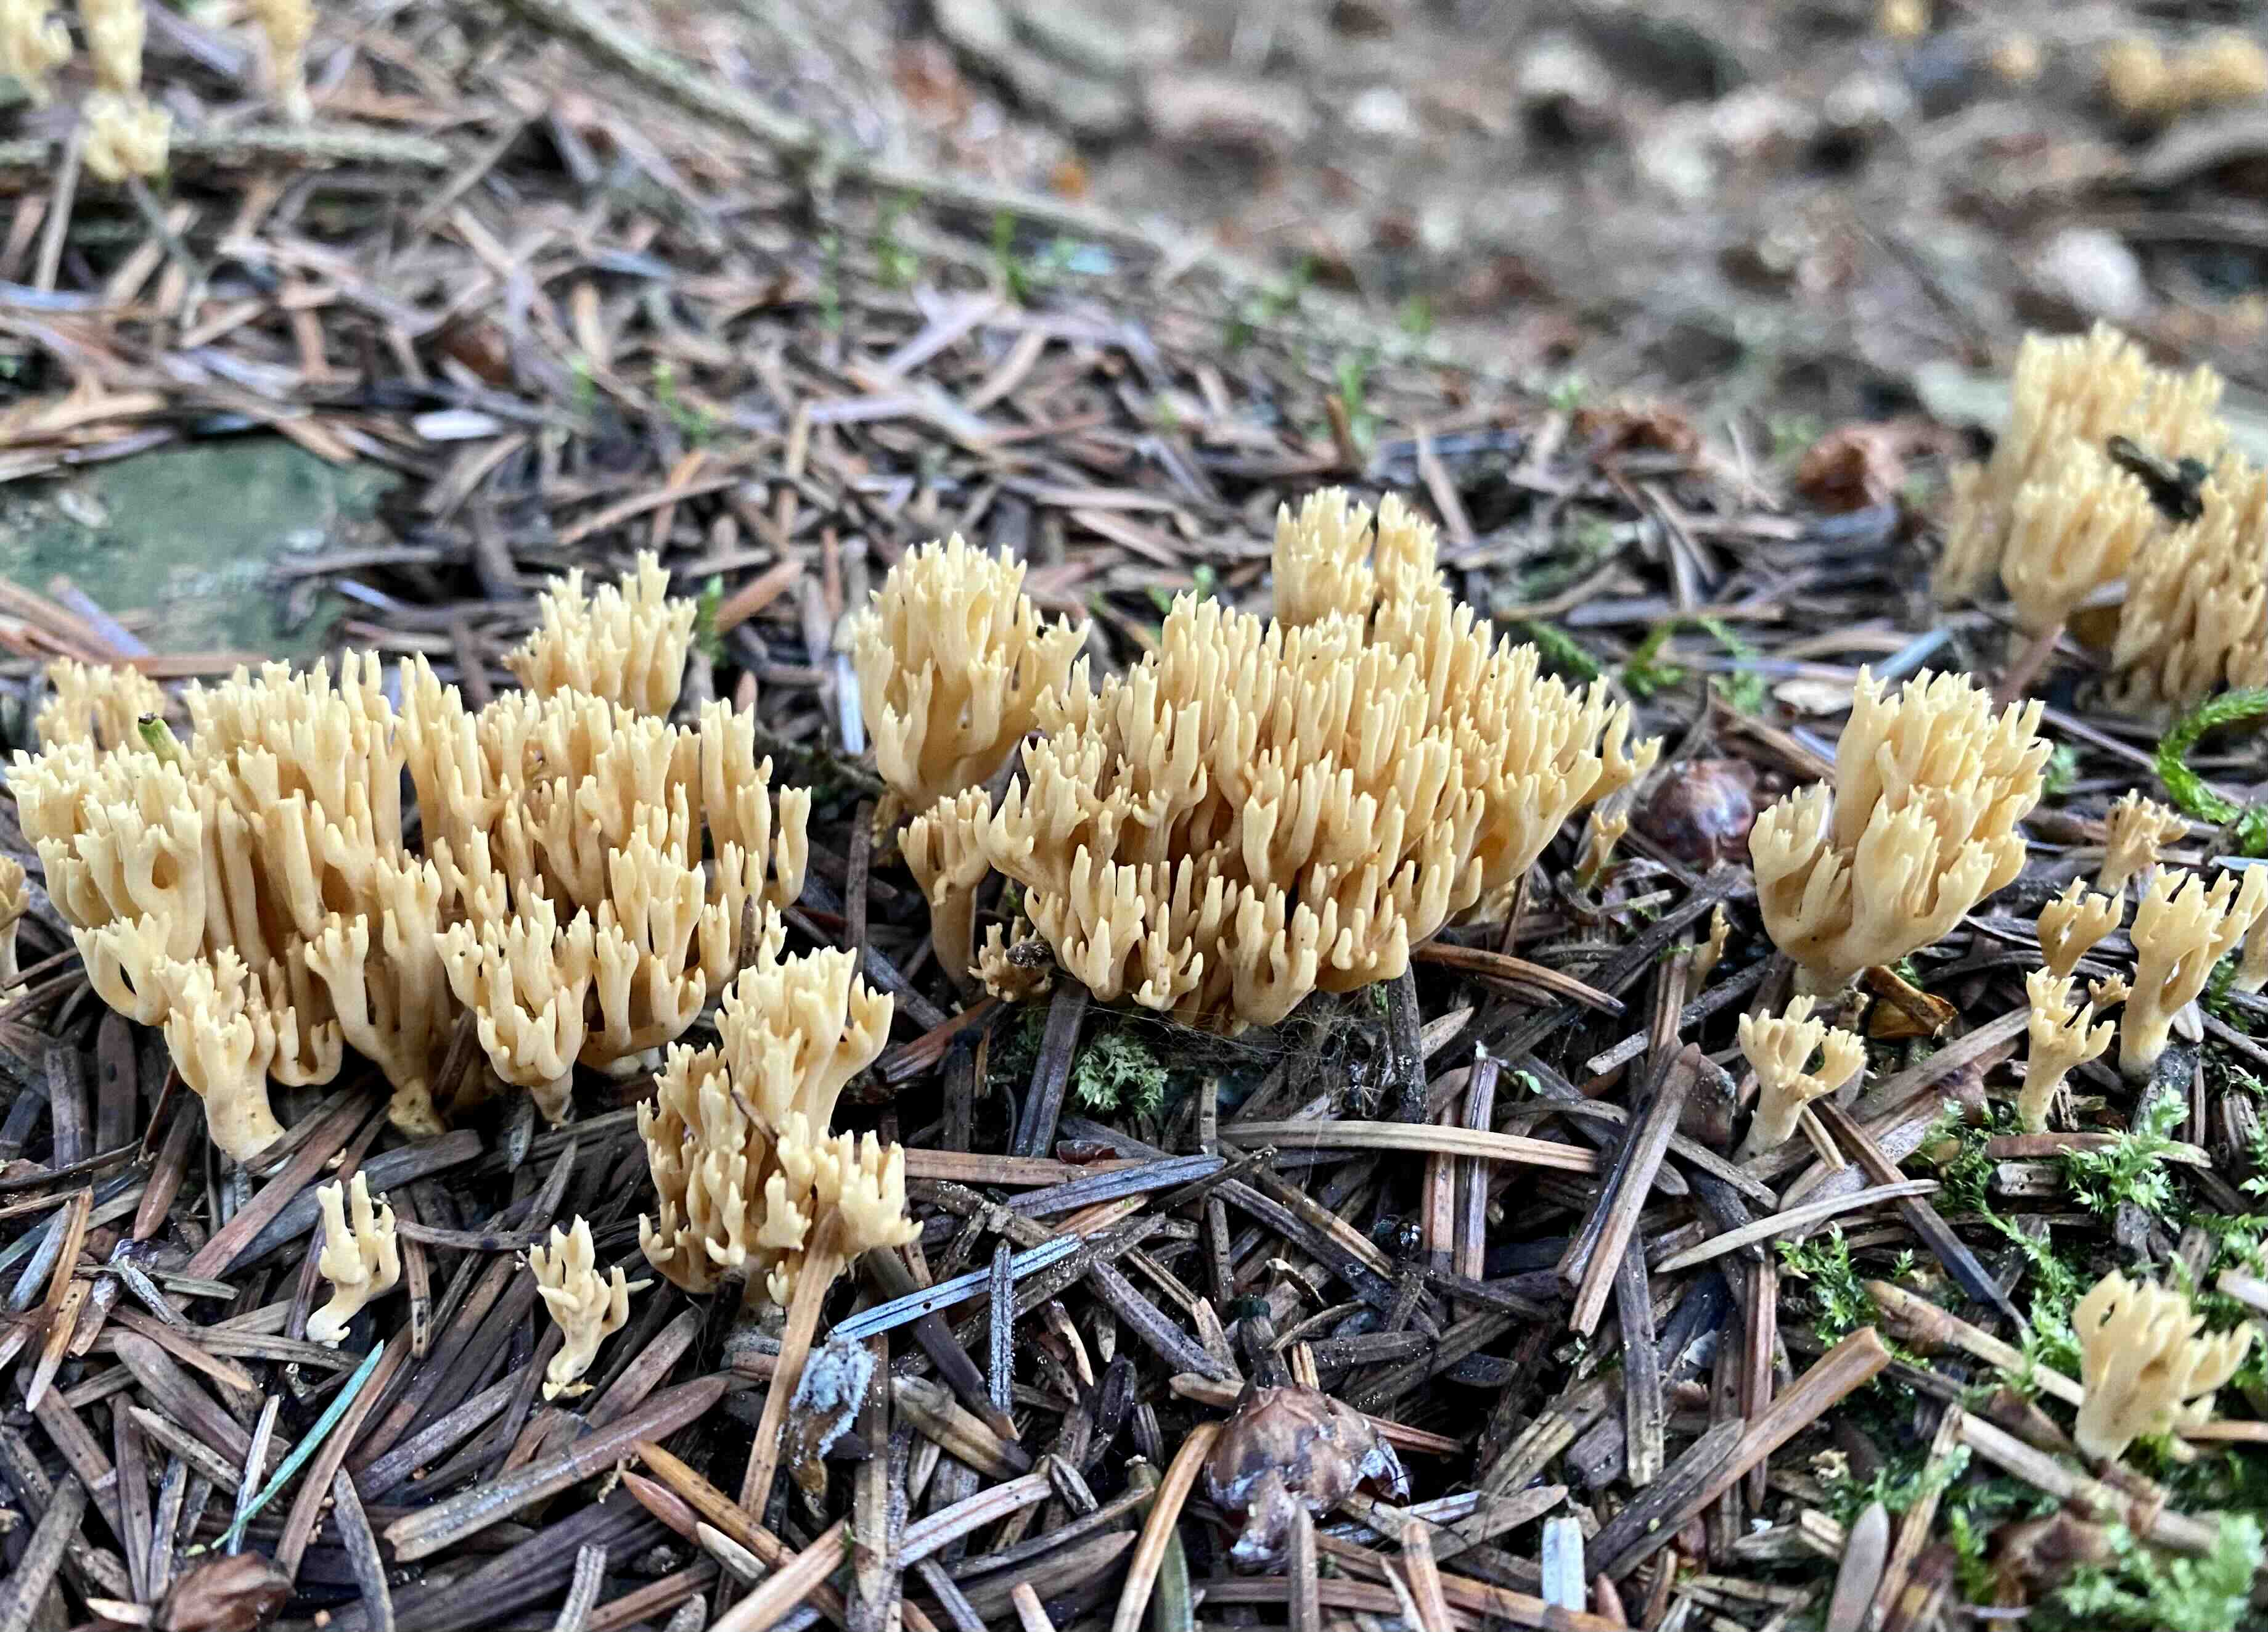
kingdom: Fungi
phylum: Basidiomycota
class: Agaricomycetes
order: Gomphales
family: Gomphaceae
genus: Phaeoclavulina
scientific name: Phaeoclavulina eumorpha
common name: gran-koralsvamp
